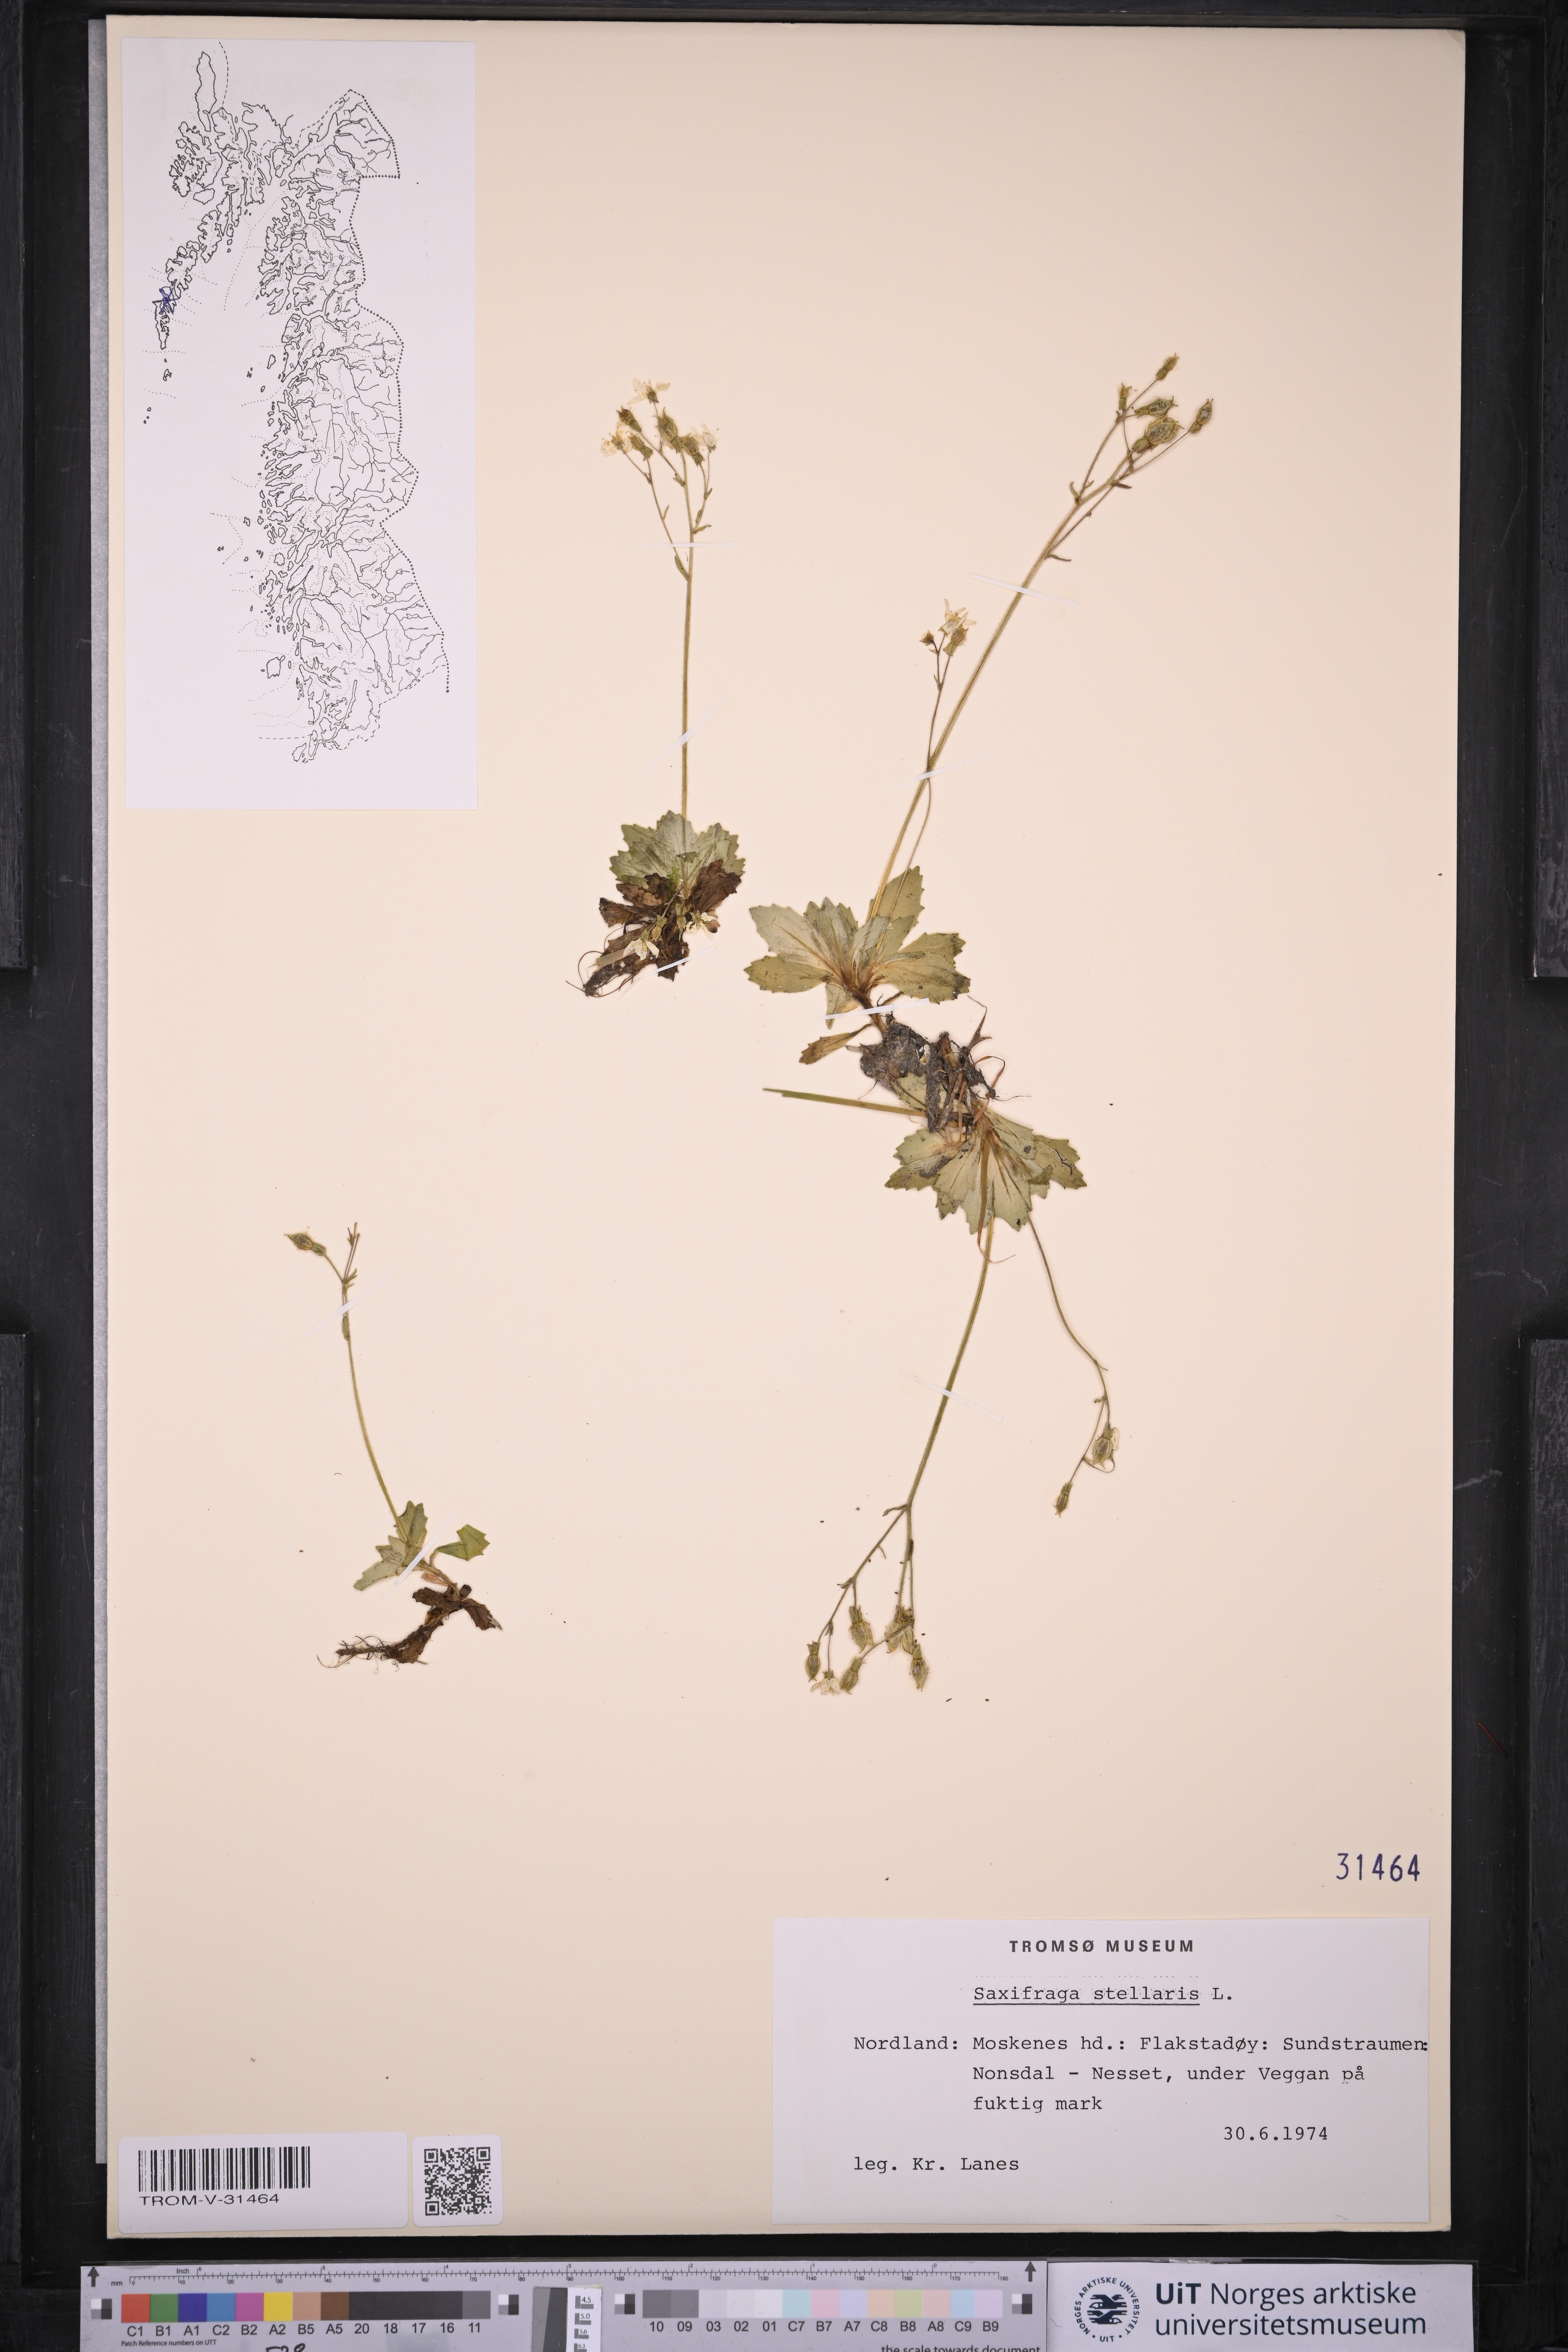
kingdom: Plantae
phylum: Tracheophyta
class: Magnoliopsida
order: Saxifragales
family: Saxifragaceae
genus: Micranthes
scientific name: Micranthes stellaris
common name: Starry saxifrage
